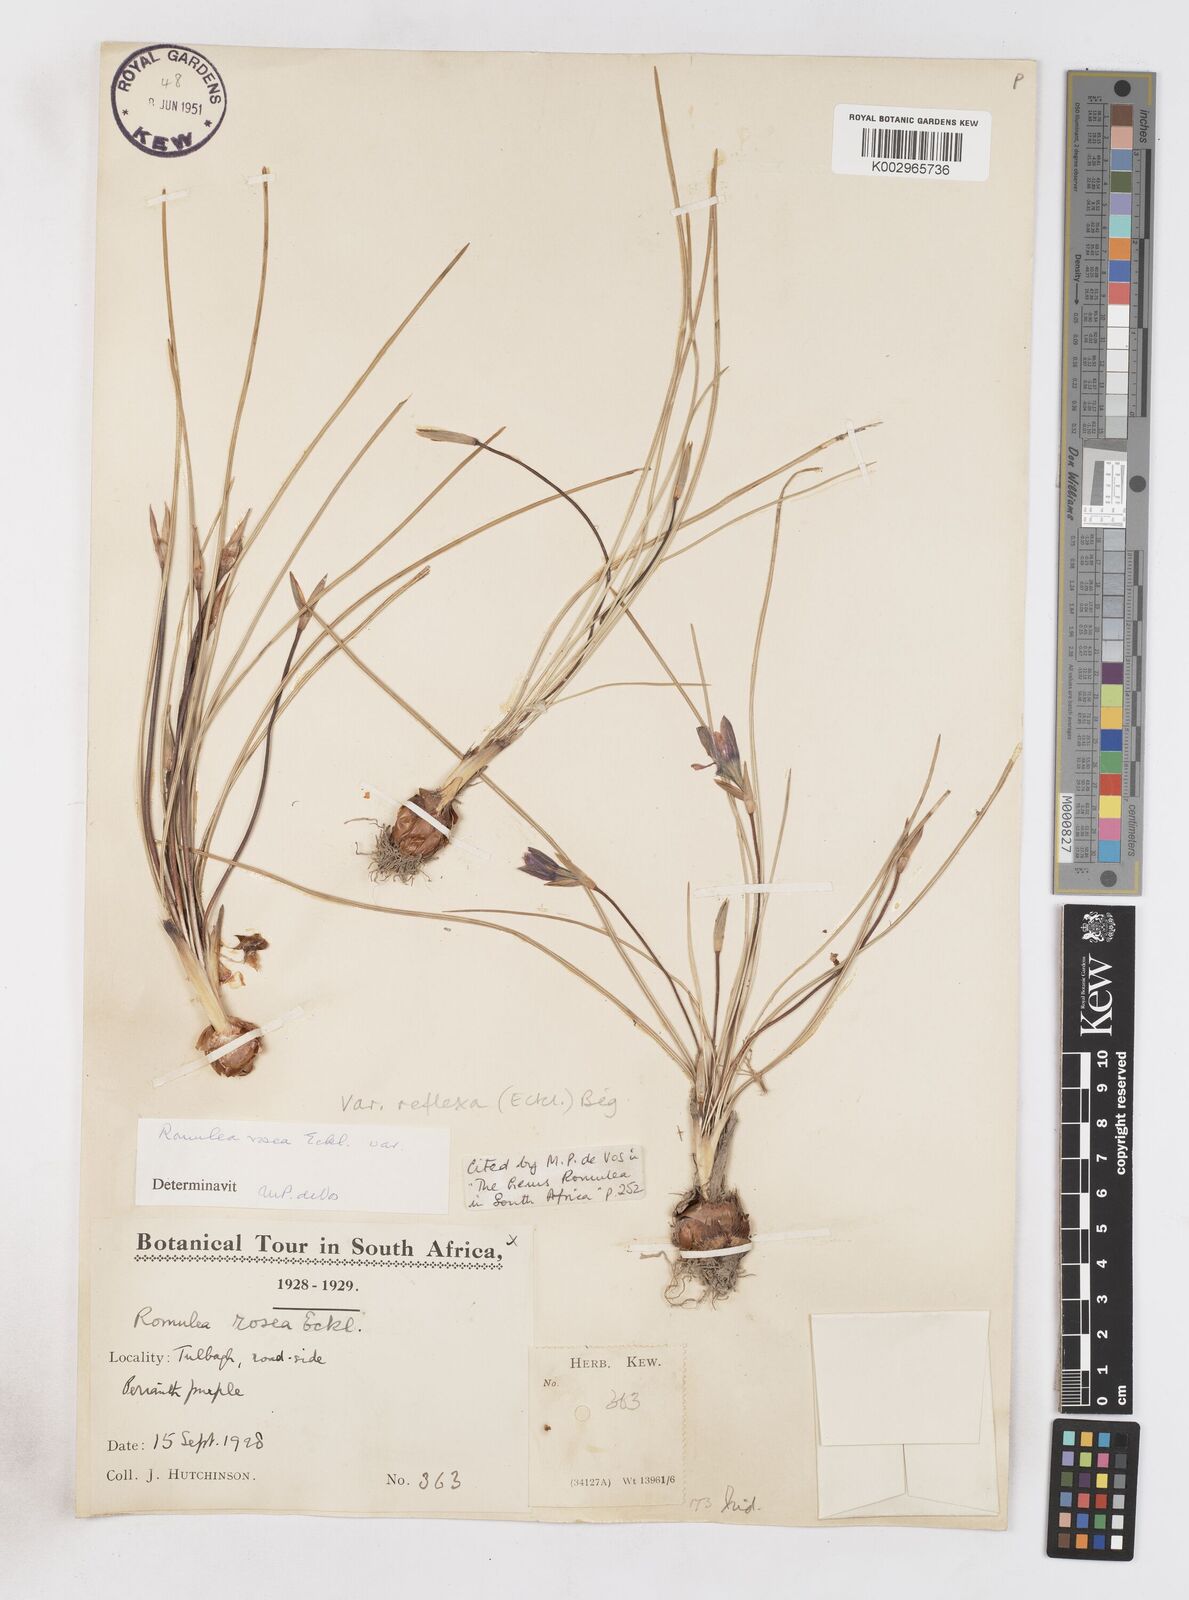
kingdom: Plantae
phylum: Tracheophyta
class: Liliopsida
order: Asparagales
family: Iridaceae
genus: Romulea
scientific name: Romulea rosea
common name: Oniongrass
